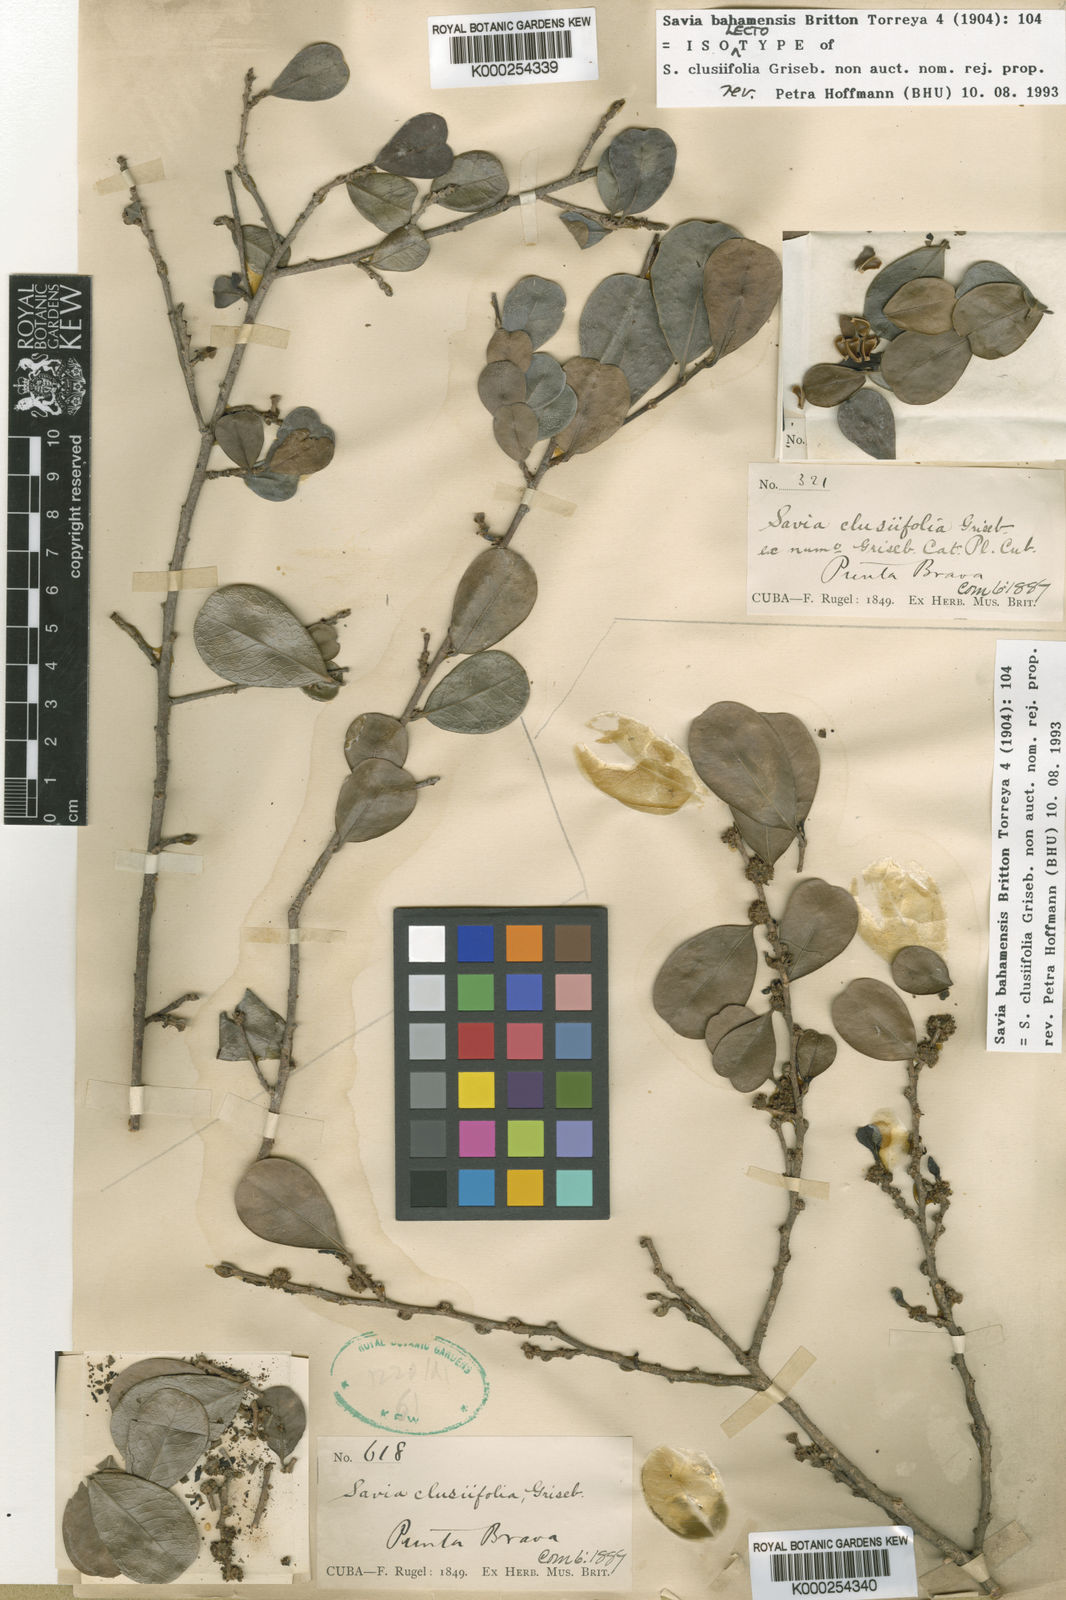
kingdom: Plantae
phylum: Tracheophyta
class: Magnoliopsida
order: Malpighiales
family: Phyllanthaceae
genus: Heterosavia
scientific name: Heterosavia bahamensis
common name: Bahama maidenbush
